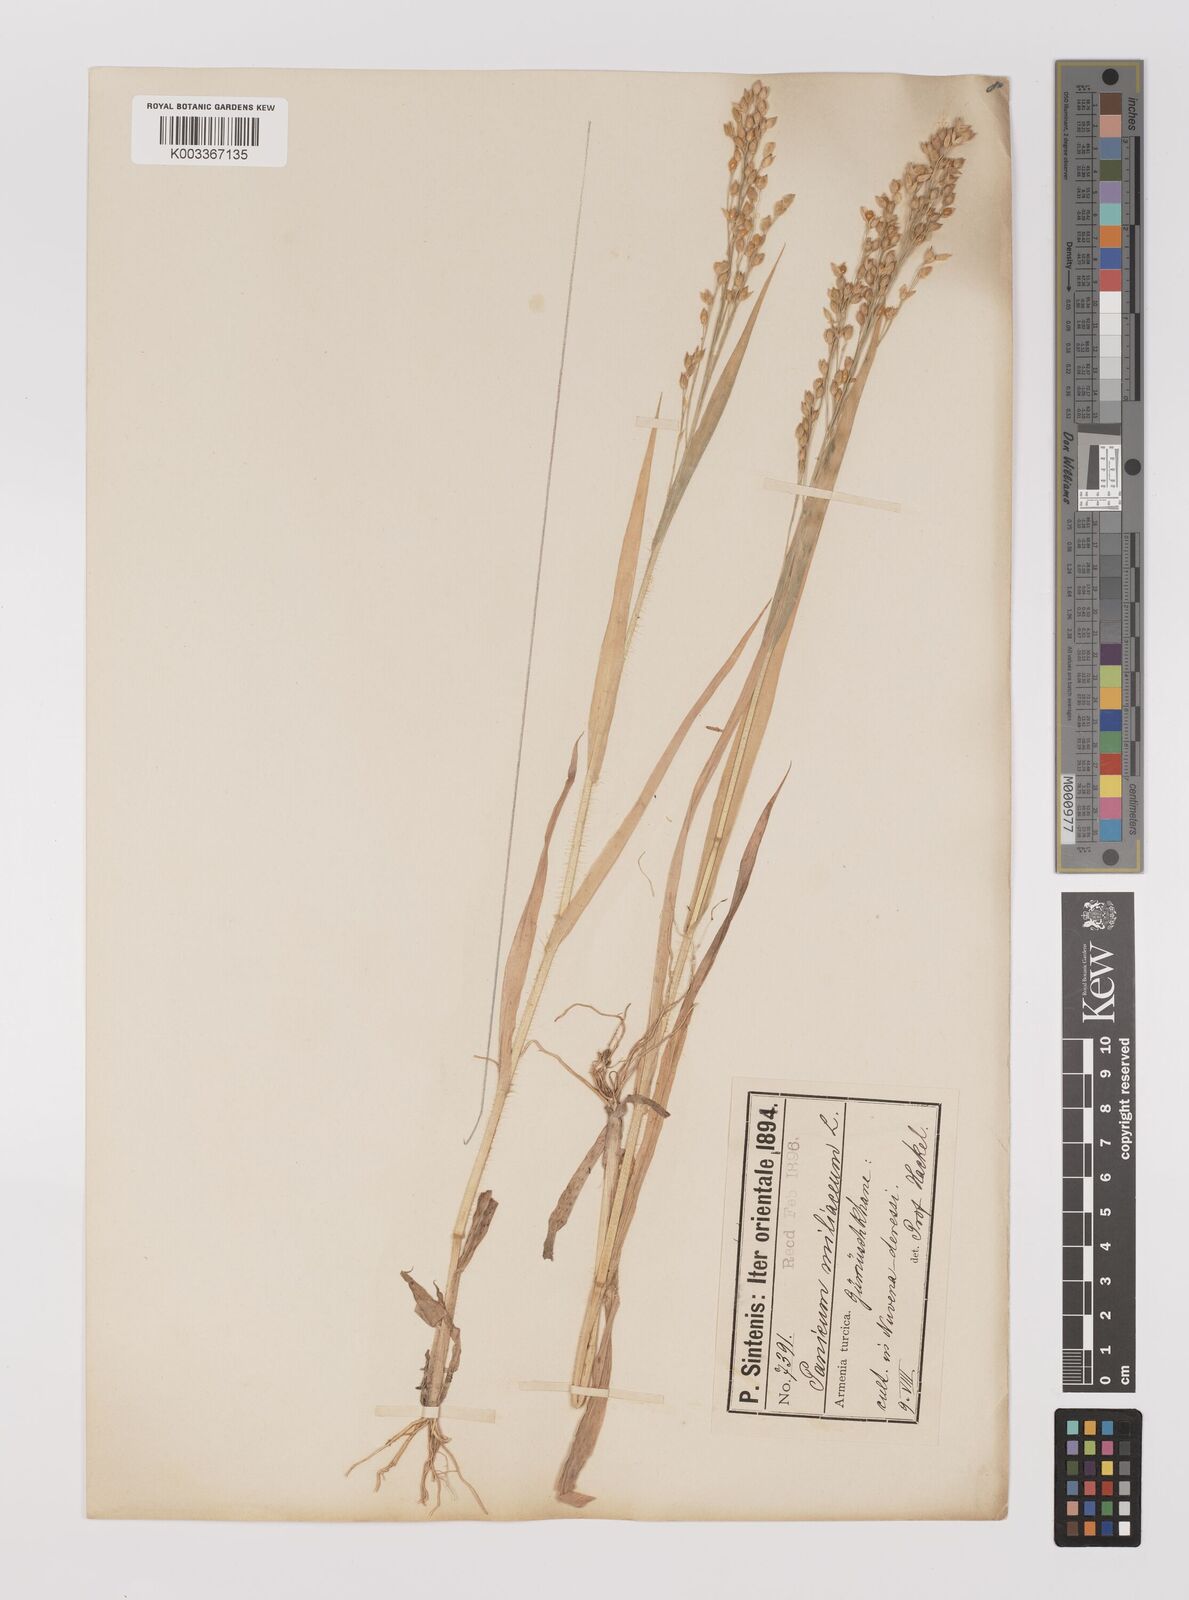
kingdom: Plantae
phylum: Tracheophyta
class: Liliopsida
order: Poales
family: Poaceae
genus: Panicum
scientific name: Panicum miliaceum
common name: Common millet
